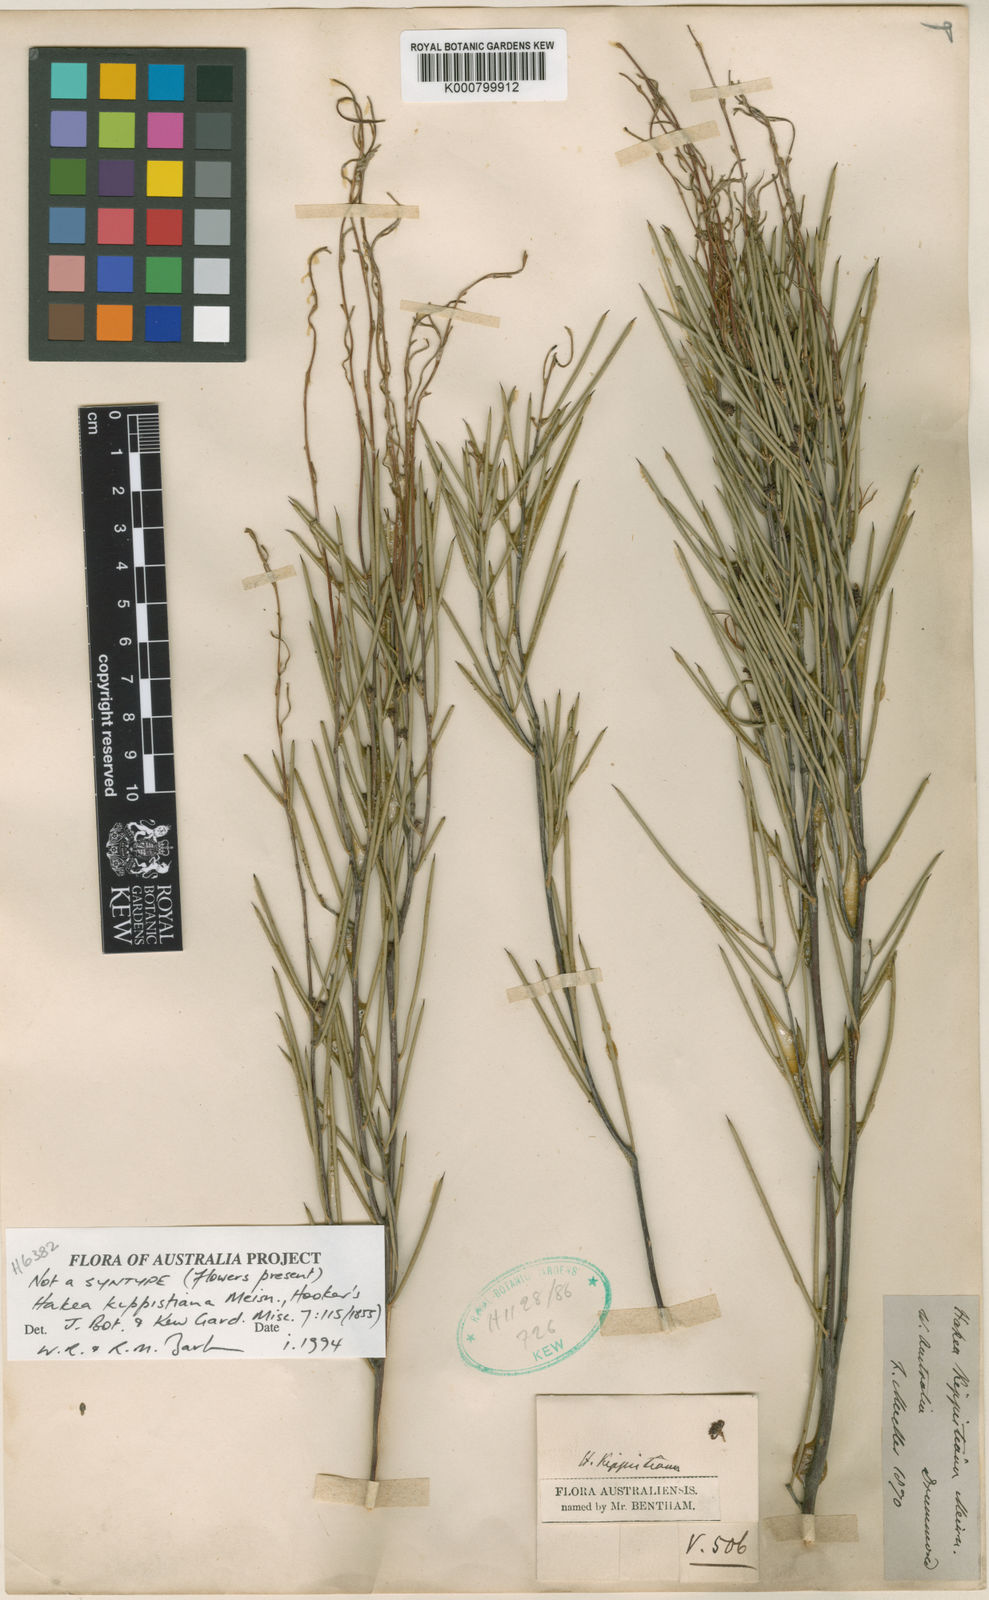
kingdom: Plantae
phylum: Tracheophyta
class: Magnoliopsida
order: Proteales
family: Proteaceae
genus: Hakea
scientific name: Hakea kippistiana
